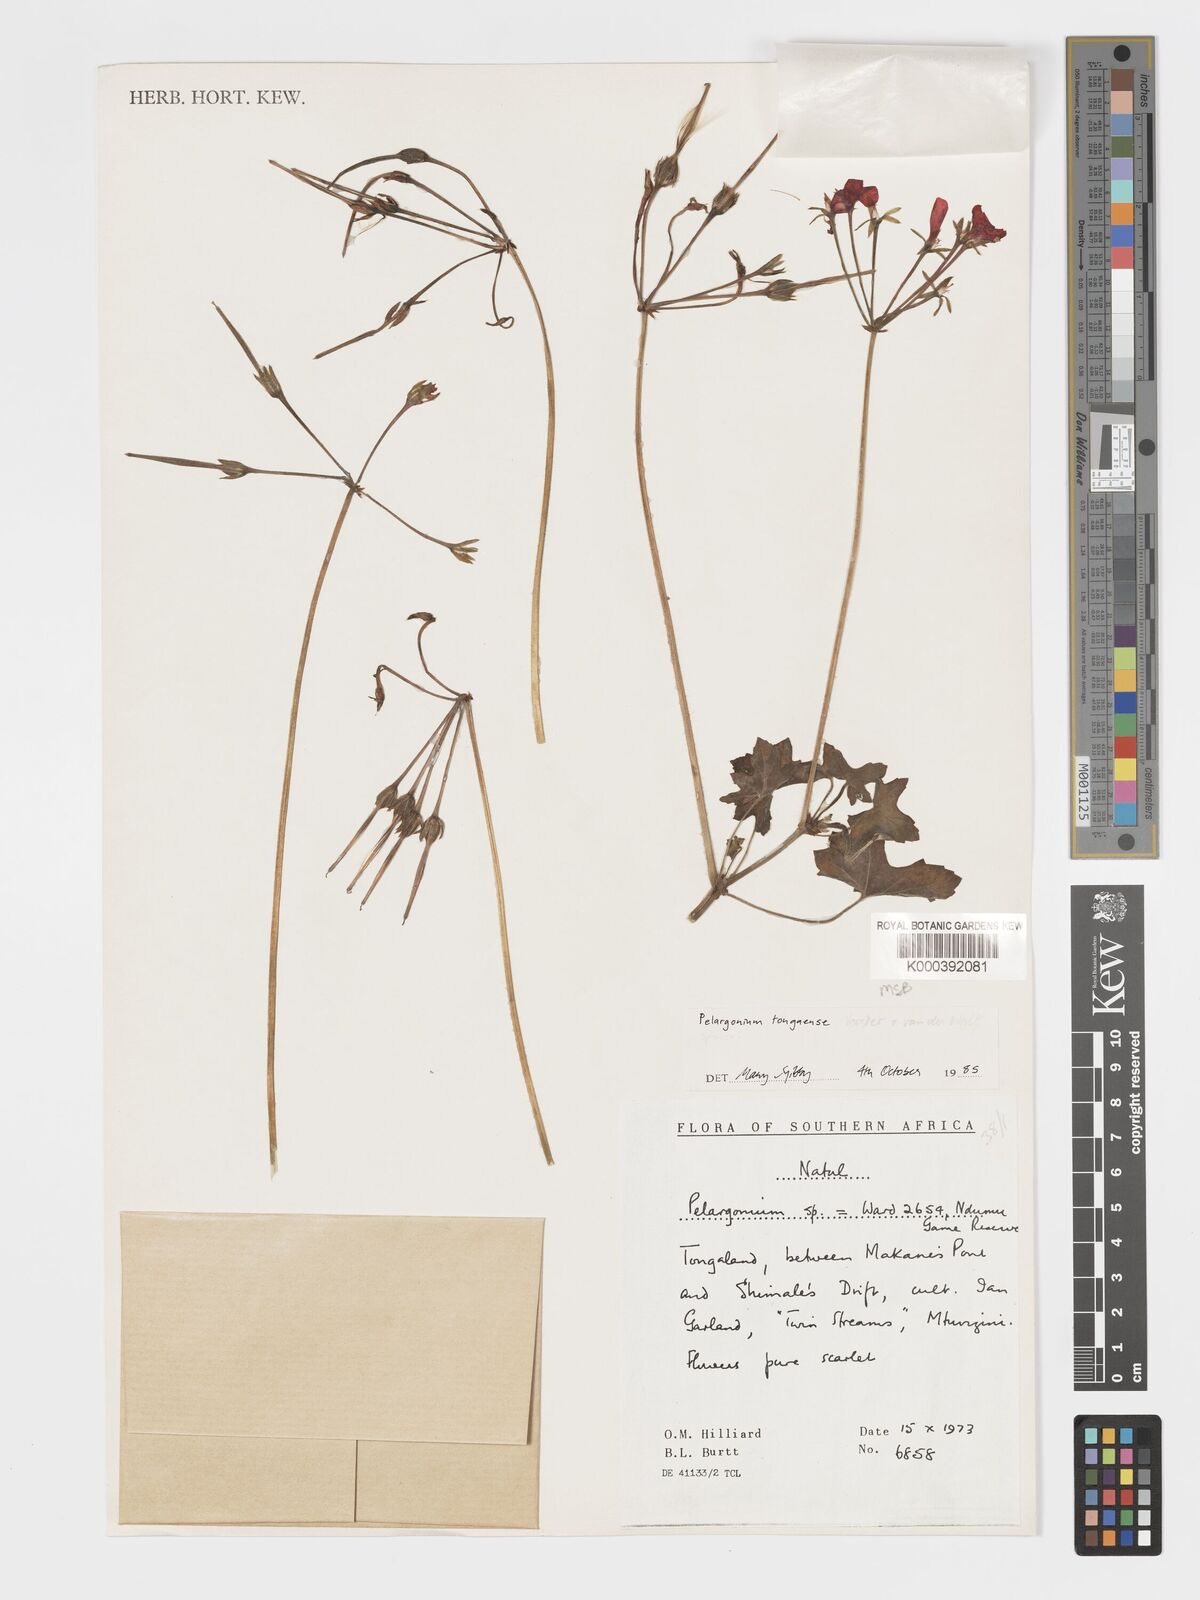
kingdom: Plantae
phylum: Tracheophyta
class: Magnoliopsida
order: Geraniales
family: Geraniaceae
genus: Pelargonium
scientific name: Pelargonium tongaense
